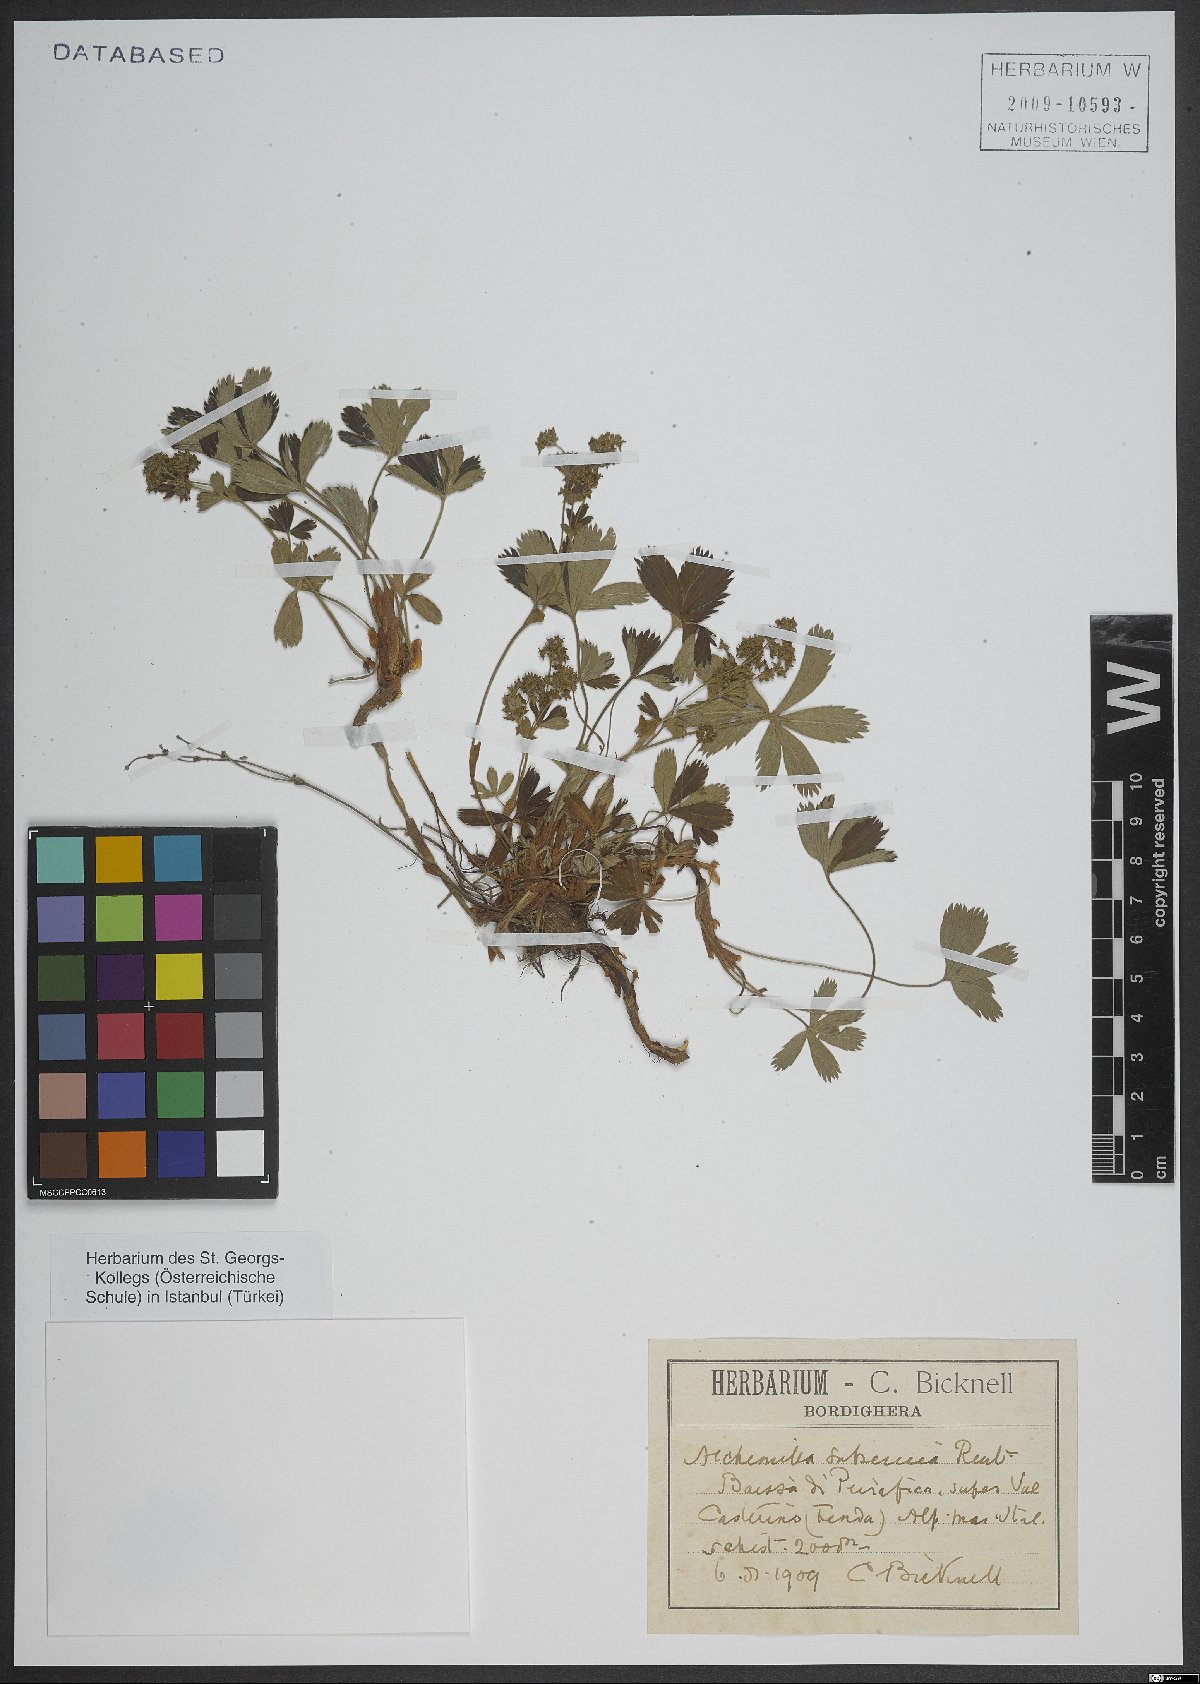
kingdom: Plantae
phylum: Tracheophyta
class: Magnoliopsida
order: Rosales
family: Rosaceae
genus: Alchemilla
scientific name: Alchemilla
